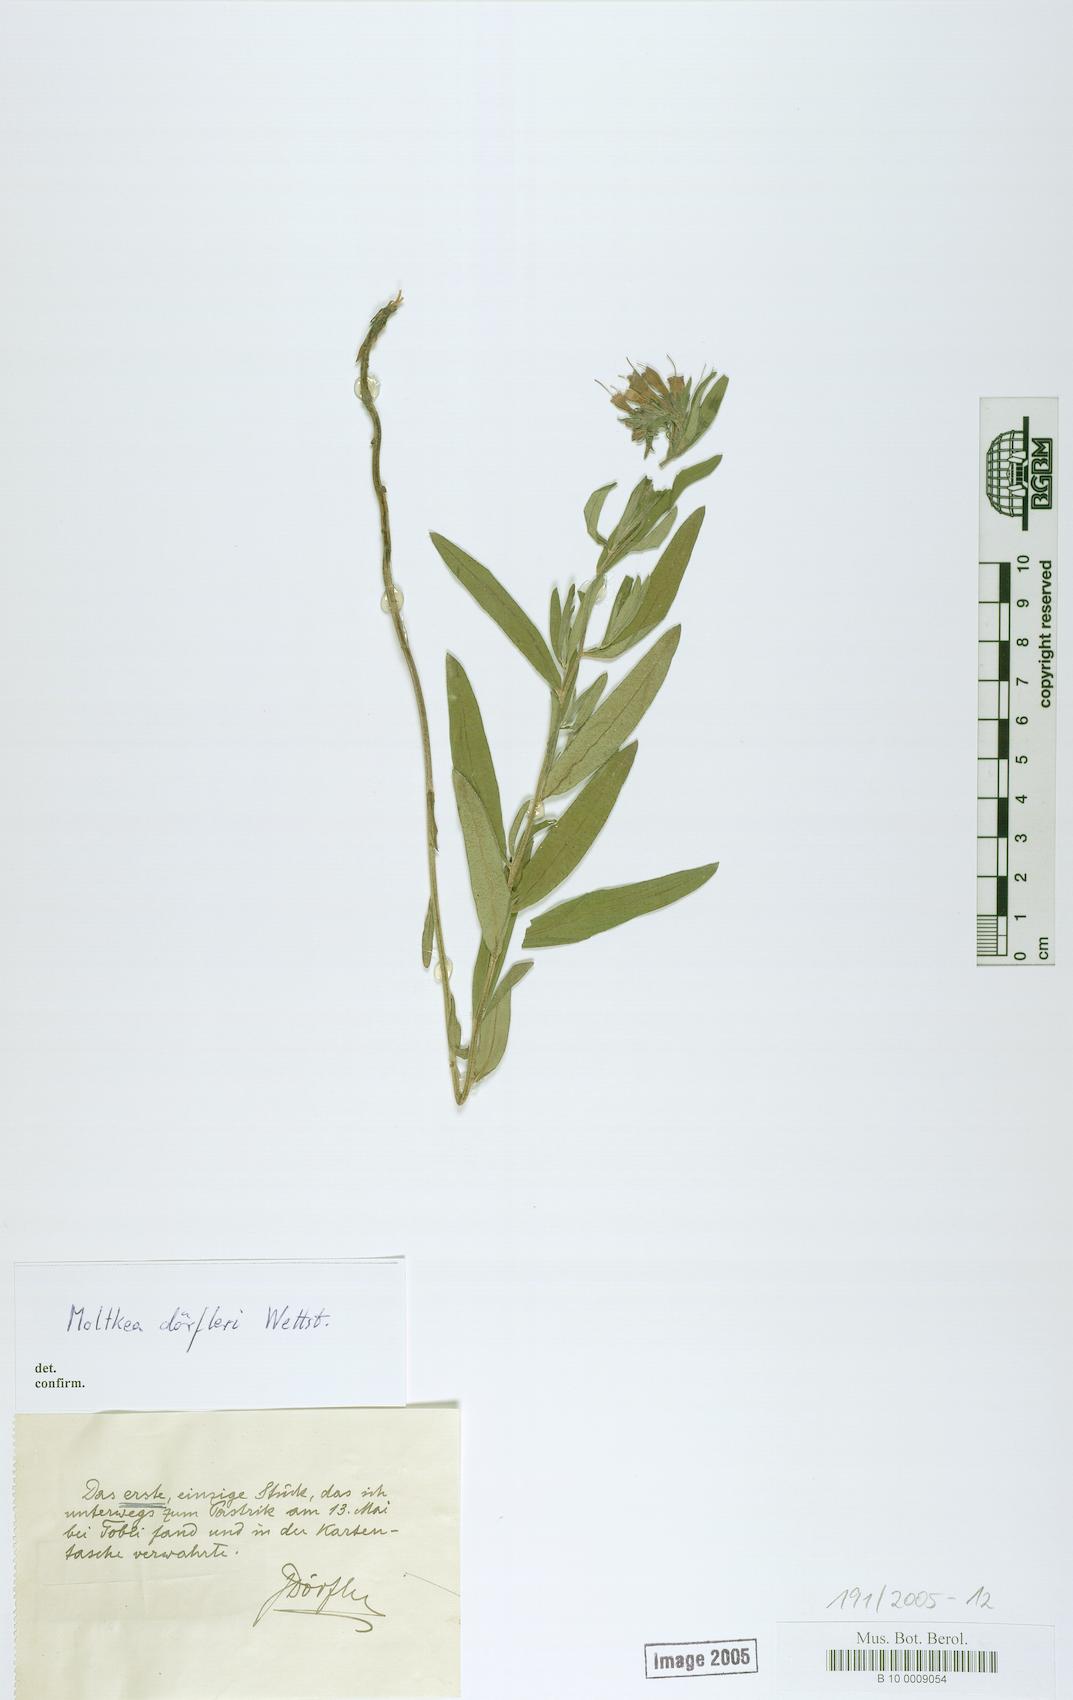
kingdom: Plantae
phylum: Tracheophyta
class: Magnoliopsida
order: Boraginales
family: Boraginaceae
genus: Paramoltkia
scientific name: Paramoltkia doerfleri
